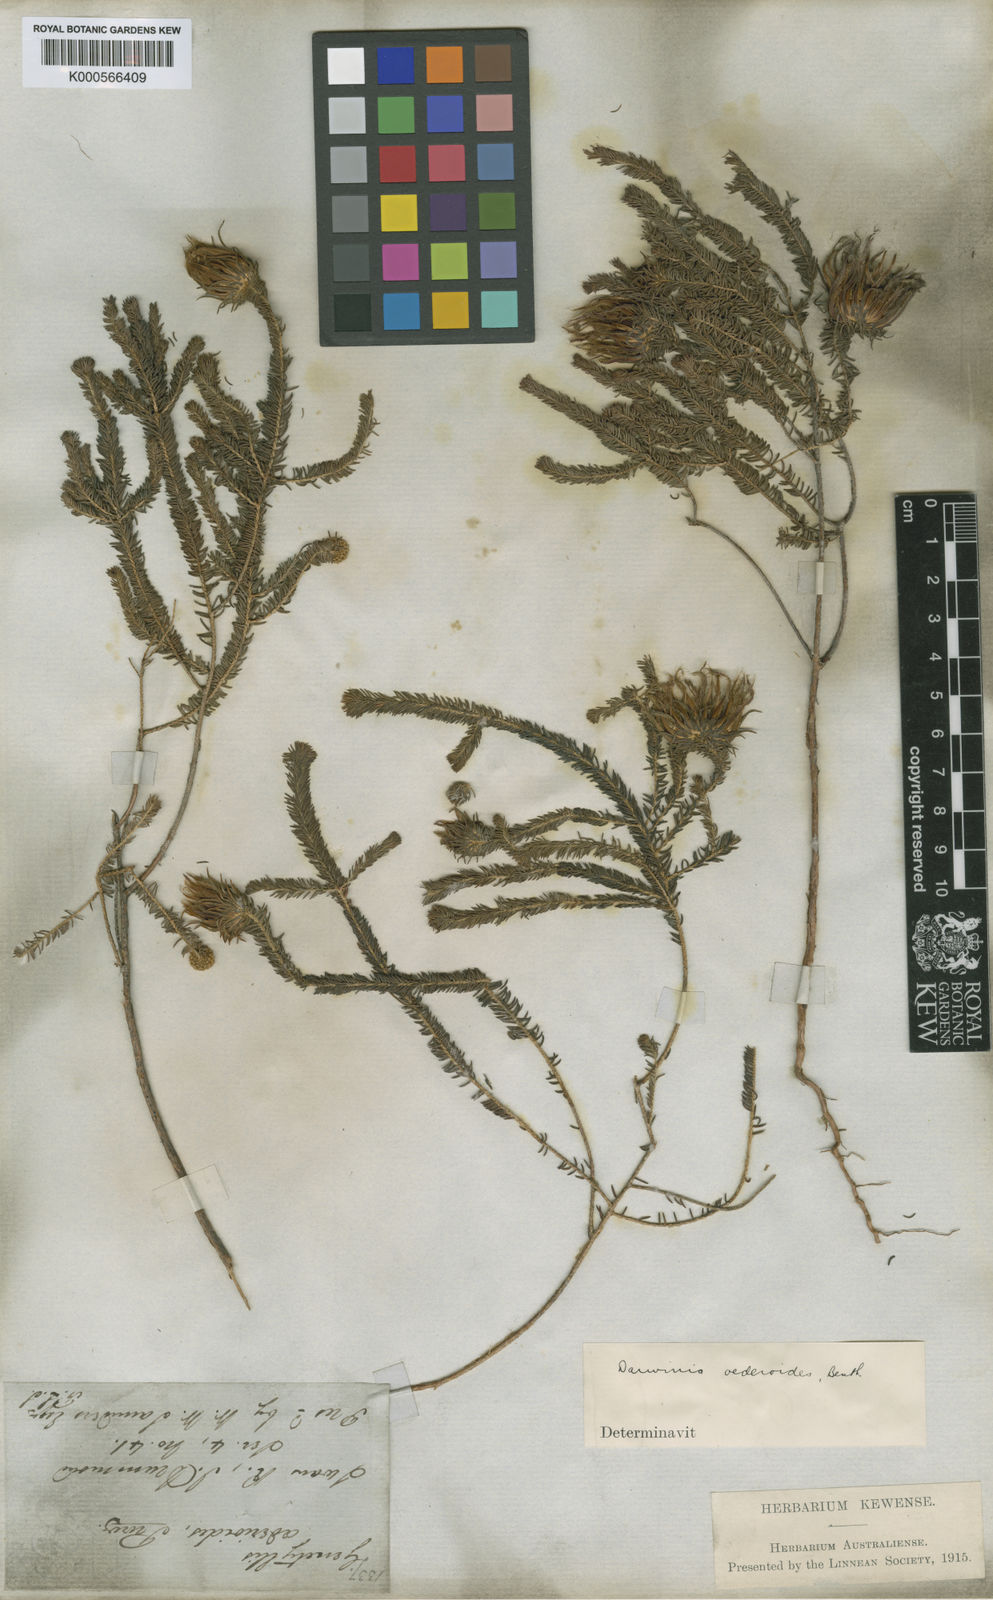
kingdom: Plantae
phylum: Tracheophyta
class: Magnoliopsida
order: Myrtales
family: Myrtaceae
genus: Darwinia
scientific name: Darwinia oederoides
